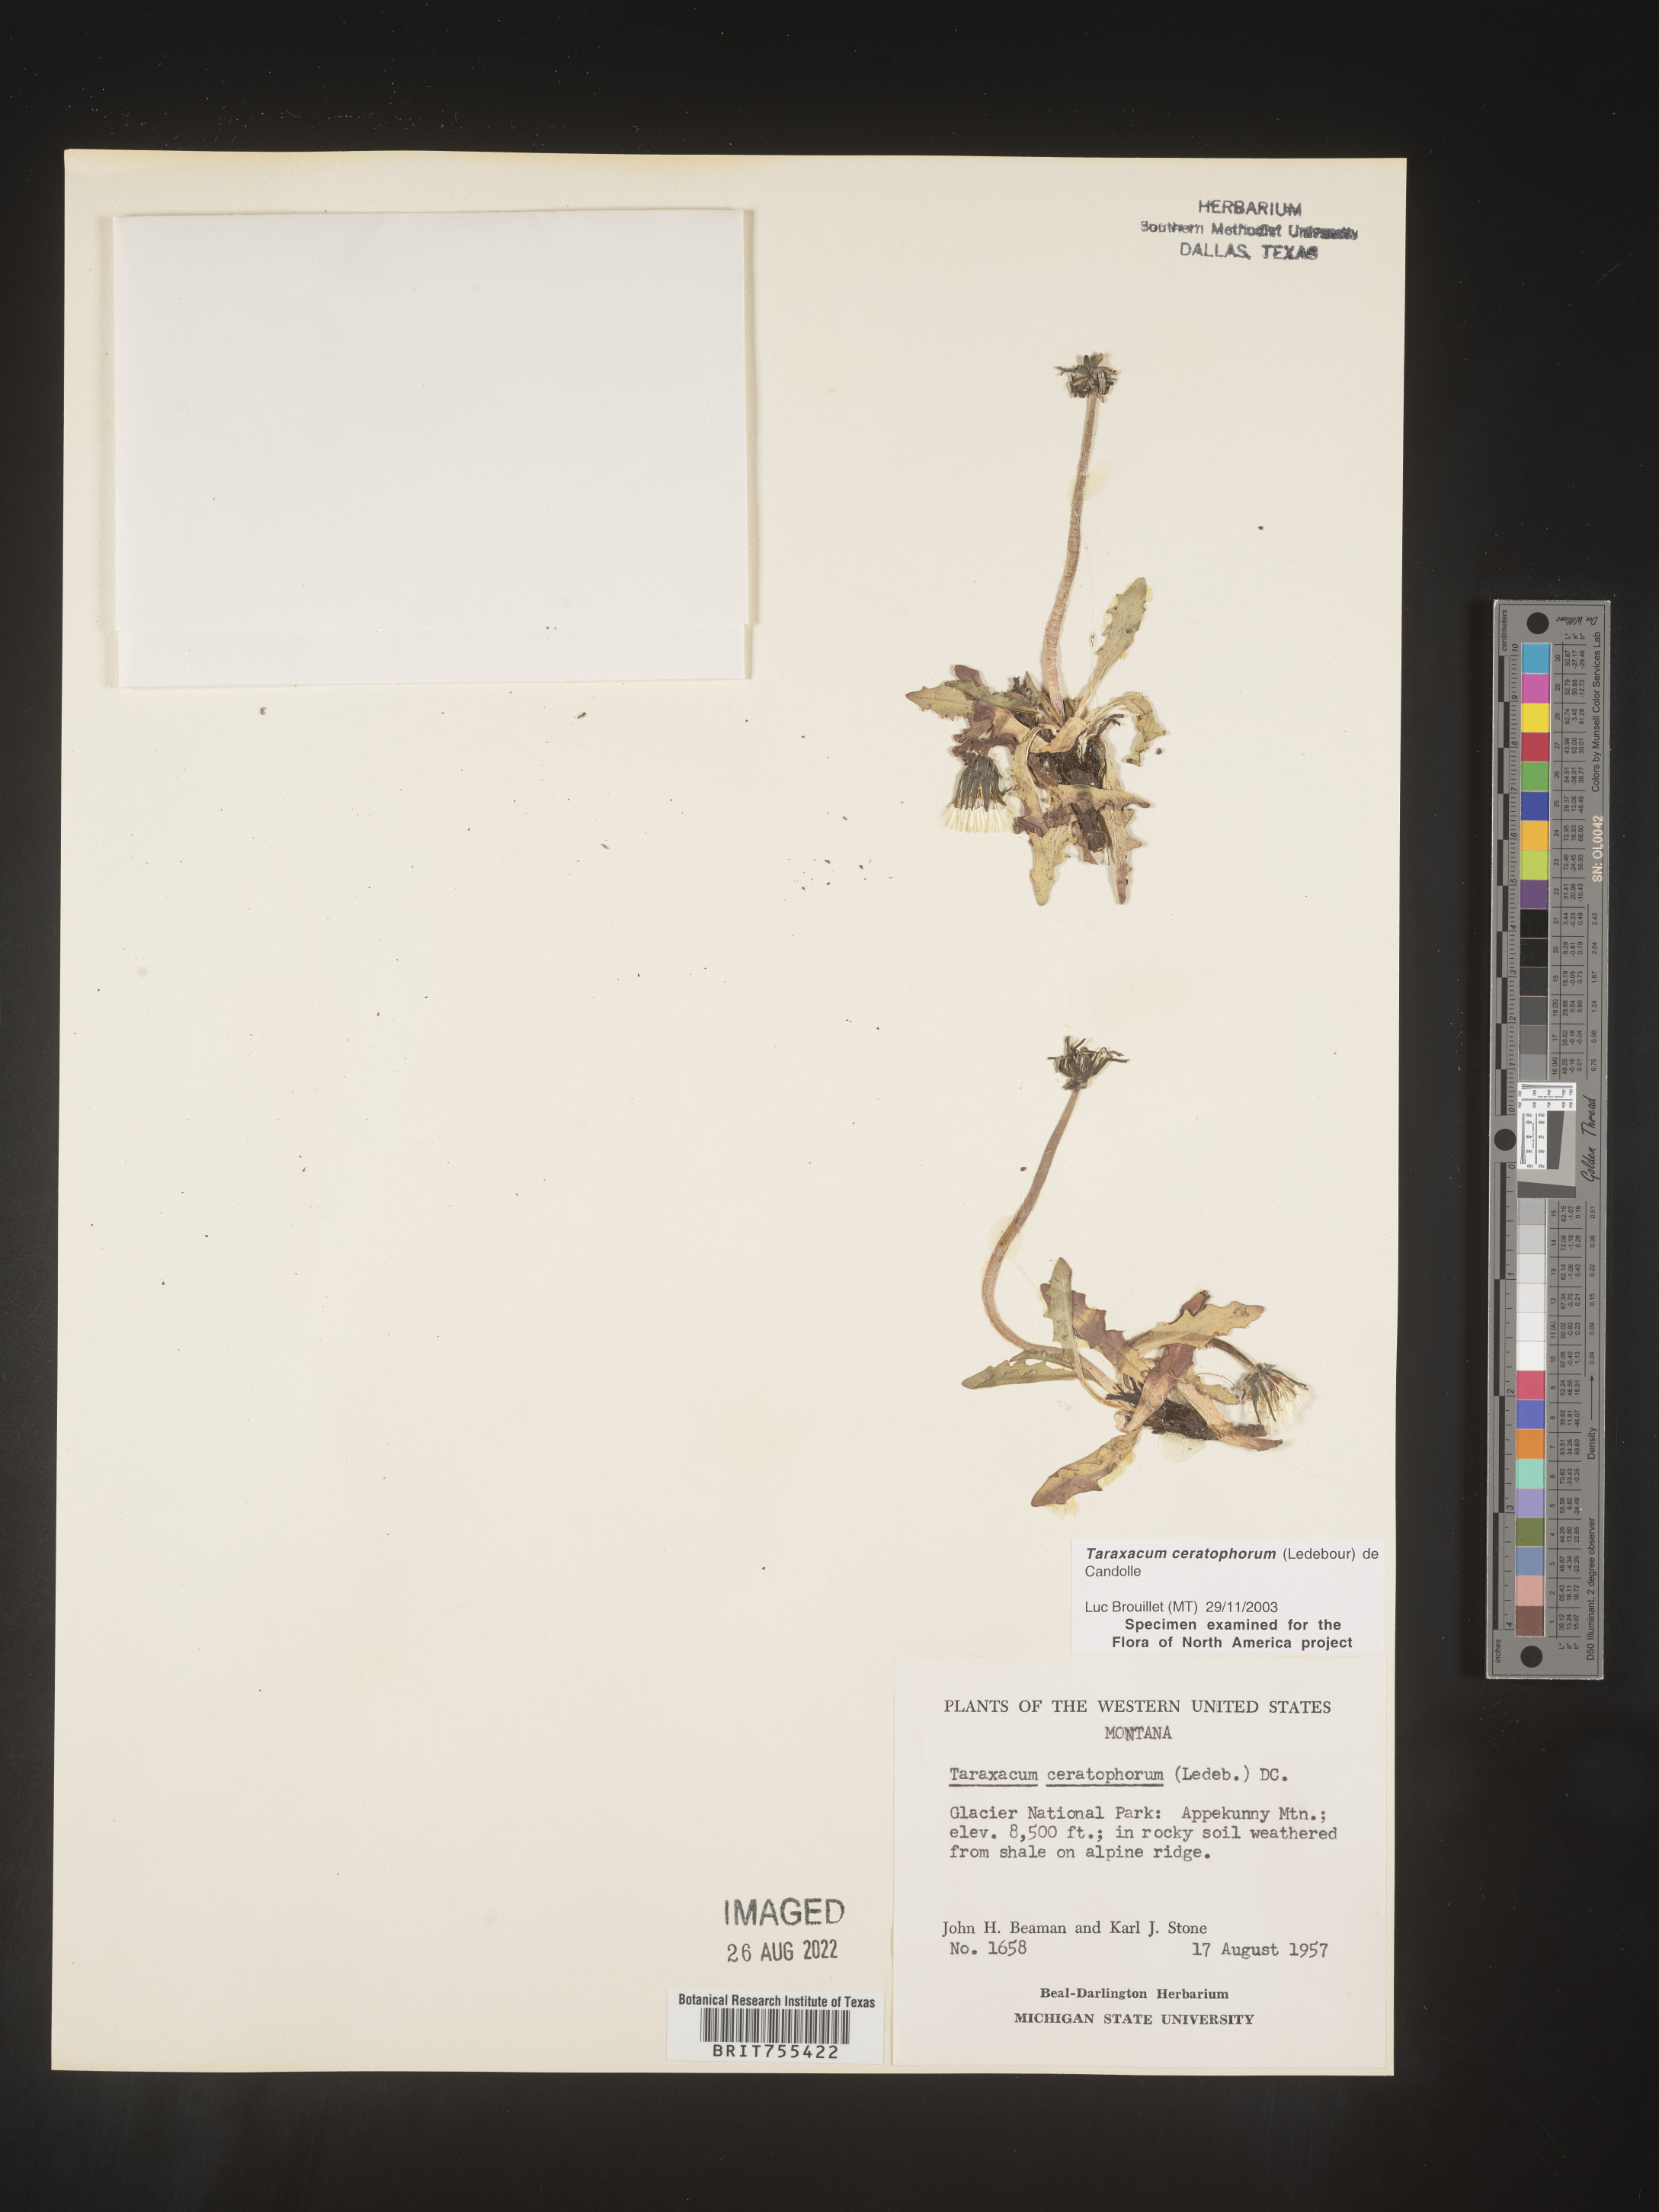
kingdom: Plantae
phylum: Tracheophyta
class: Magnoliopsida
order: Asterales
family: Asteraceae
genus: Taraxacum
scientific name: Taraxacum
